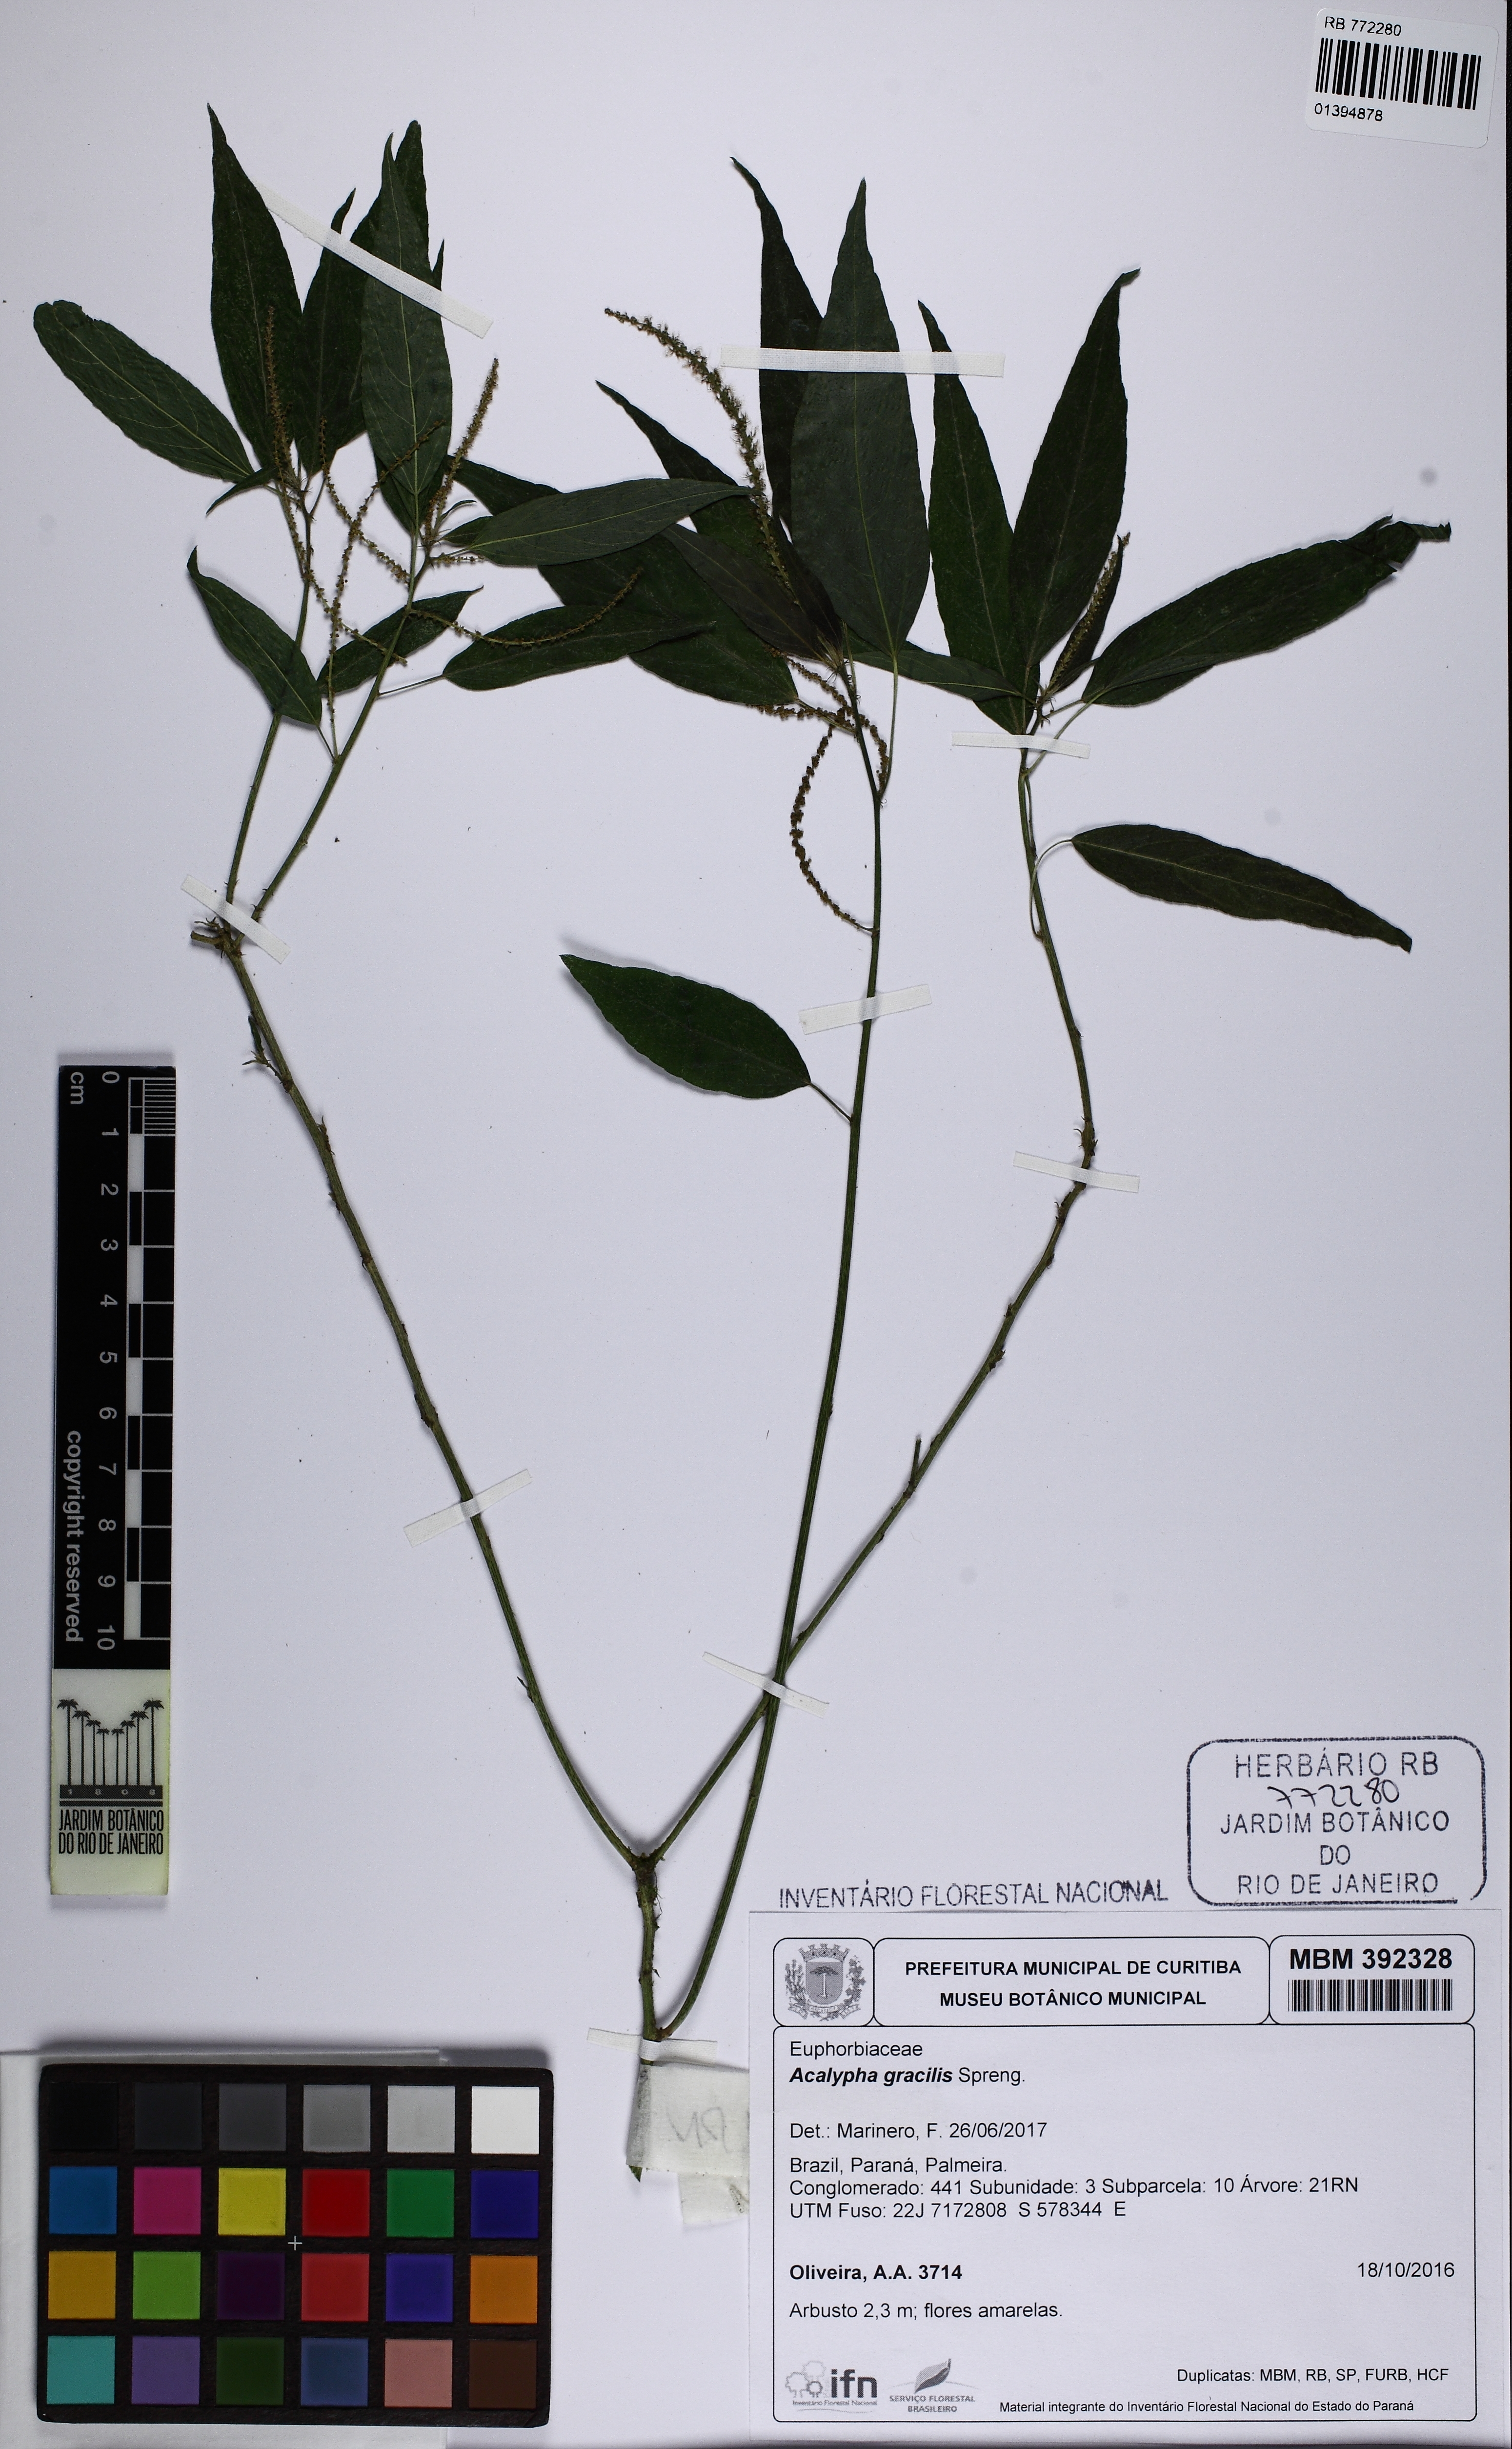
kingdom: Plantae
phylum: Tracheophyta
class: Magnoliopsida
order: Malpighiales
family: Euphorbiaceae
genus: Acalypha
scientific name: Acalypha gracilis
